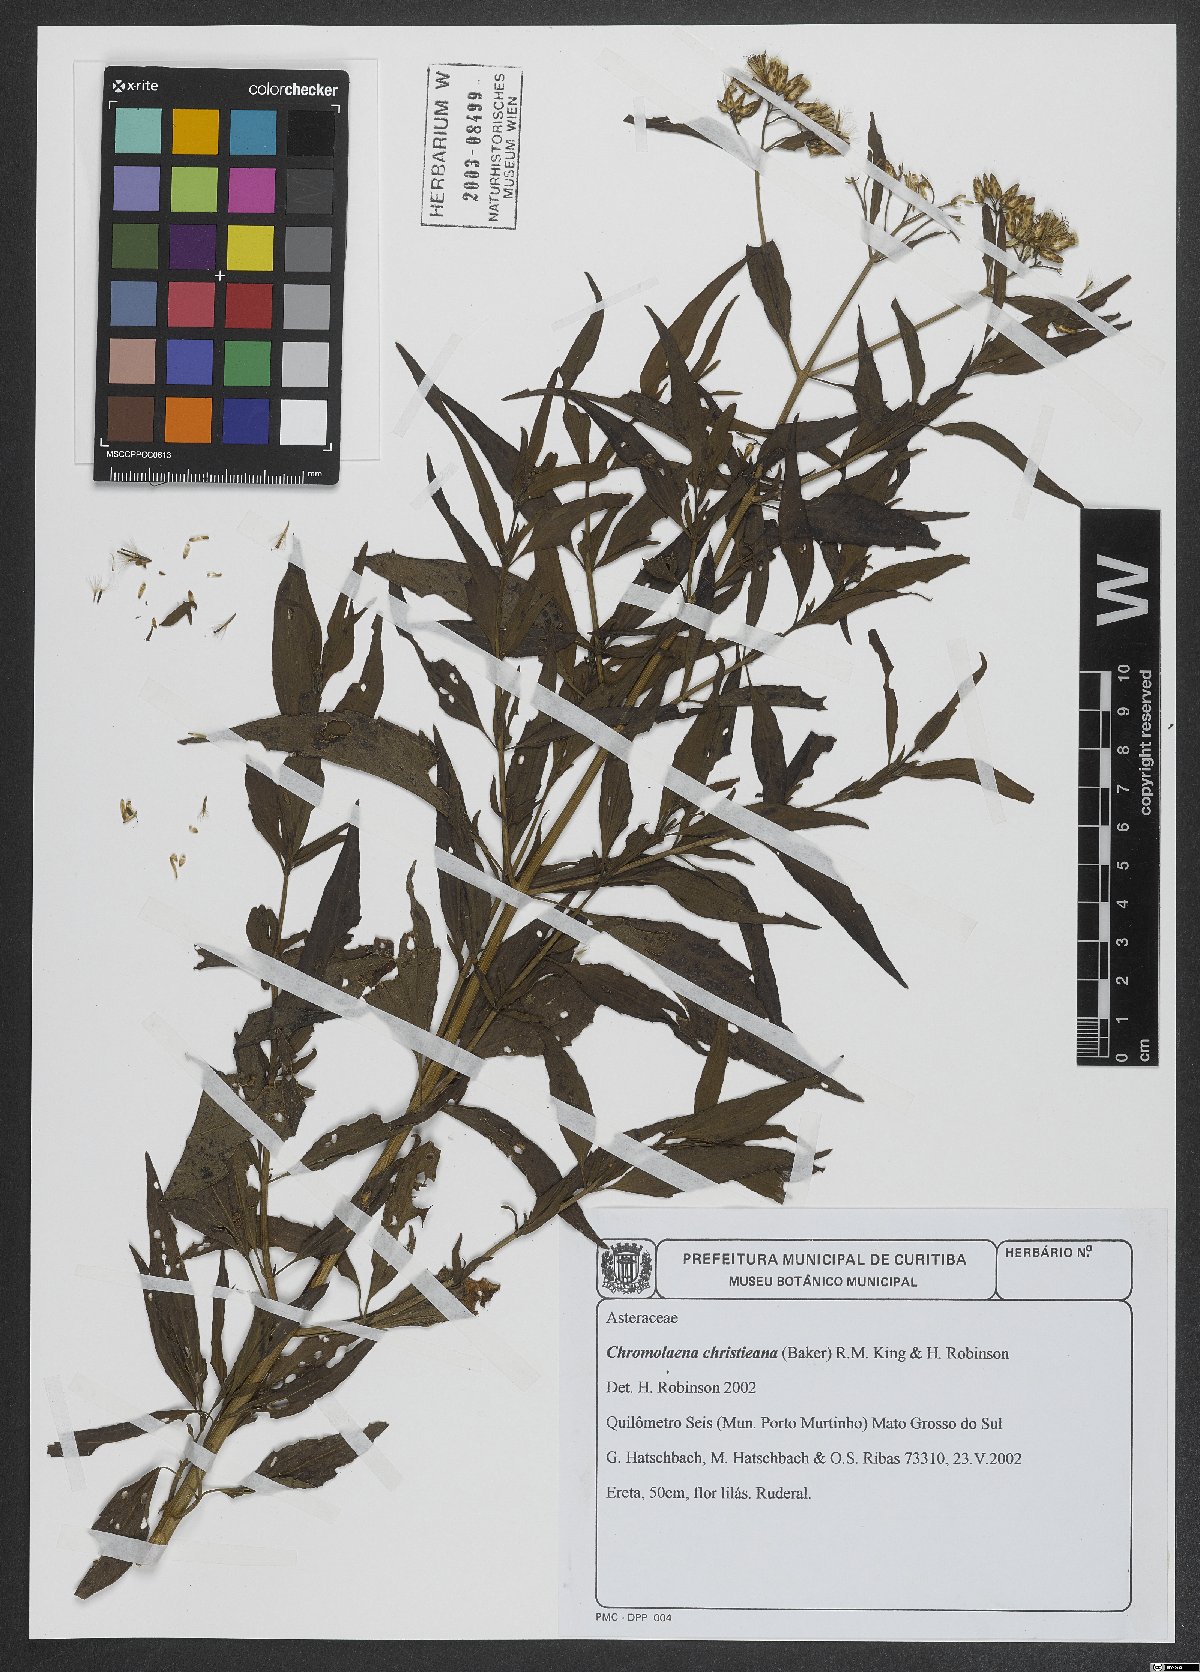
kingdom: Plantae
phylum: Tracheophyta
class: Magnoliopsida
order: Asterales
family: Asteraceae
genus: Chromolaena
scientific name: Chromolaena christieana
